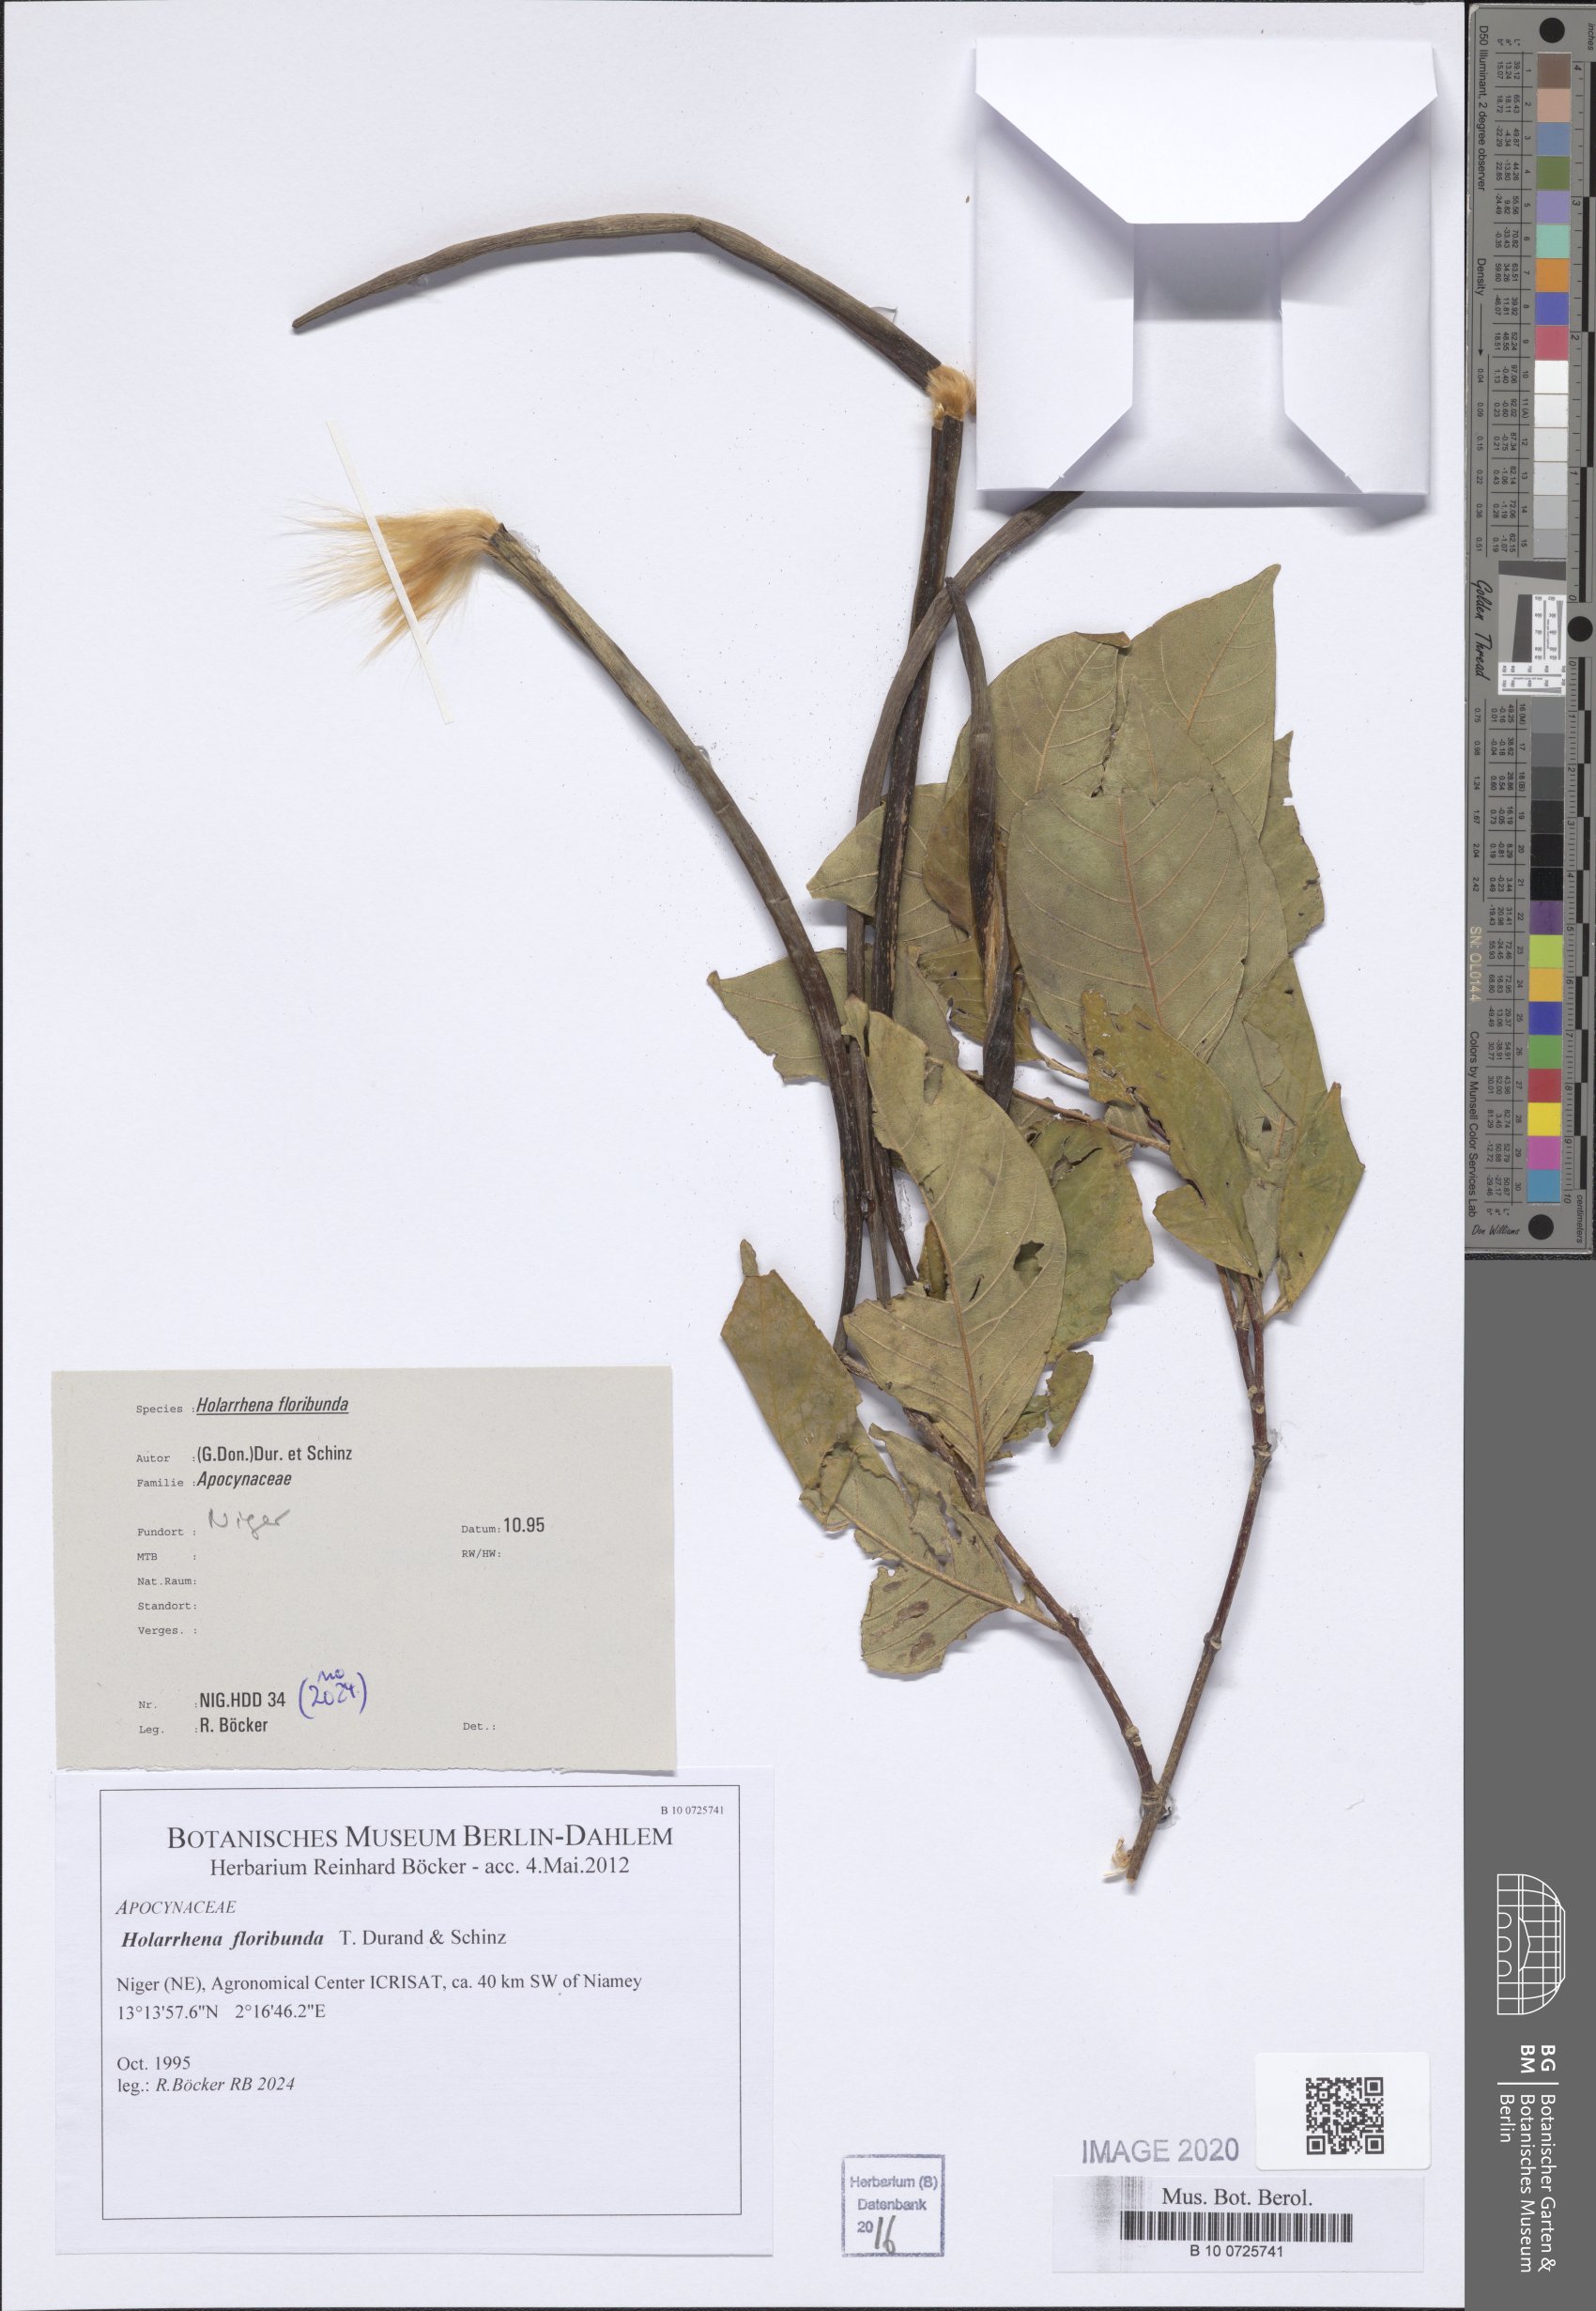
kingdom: Plantae
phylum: Tracheophyta
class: Magnoliopsida
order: Gentianales
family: Apocynaceae
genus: Holarrhena
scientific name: Holarrhena floribunda
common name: Kurchibark
